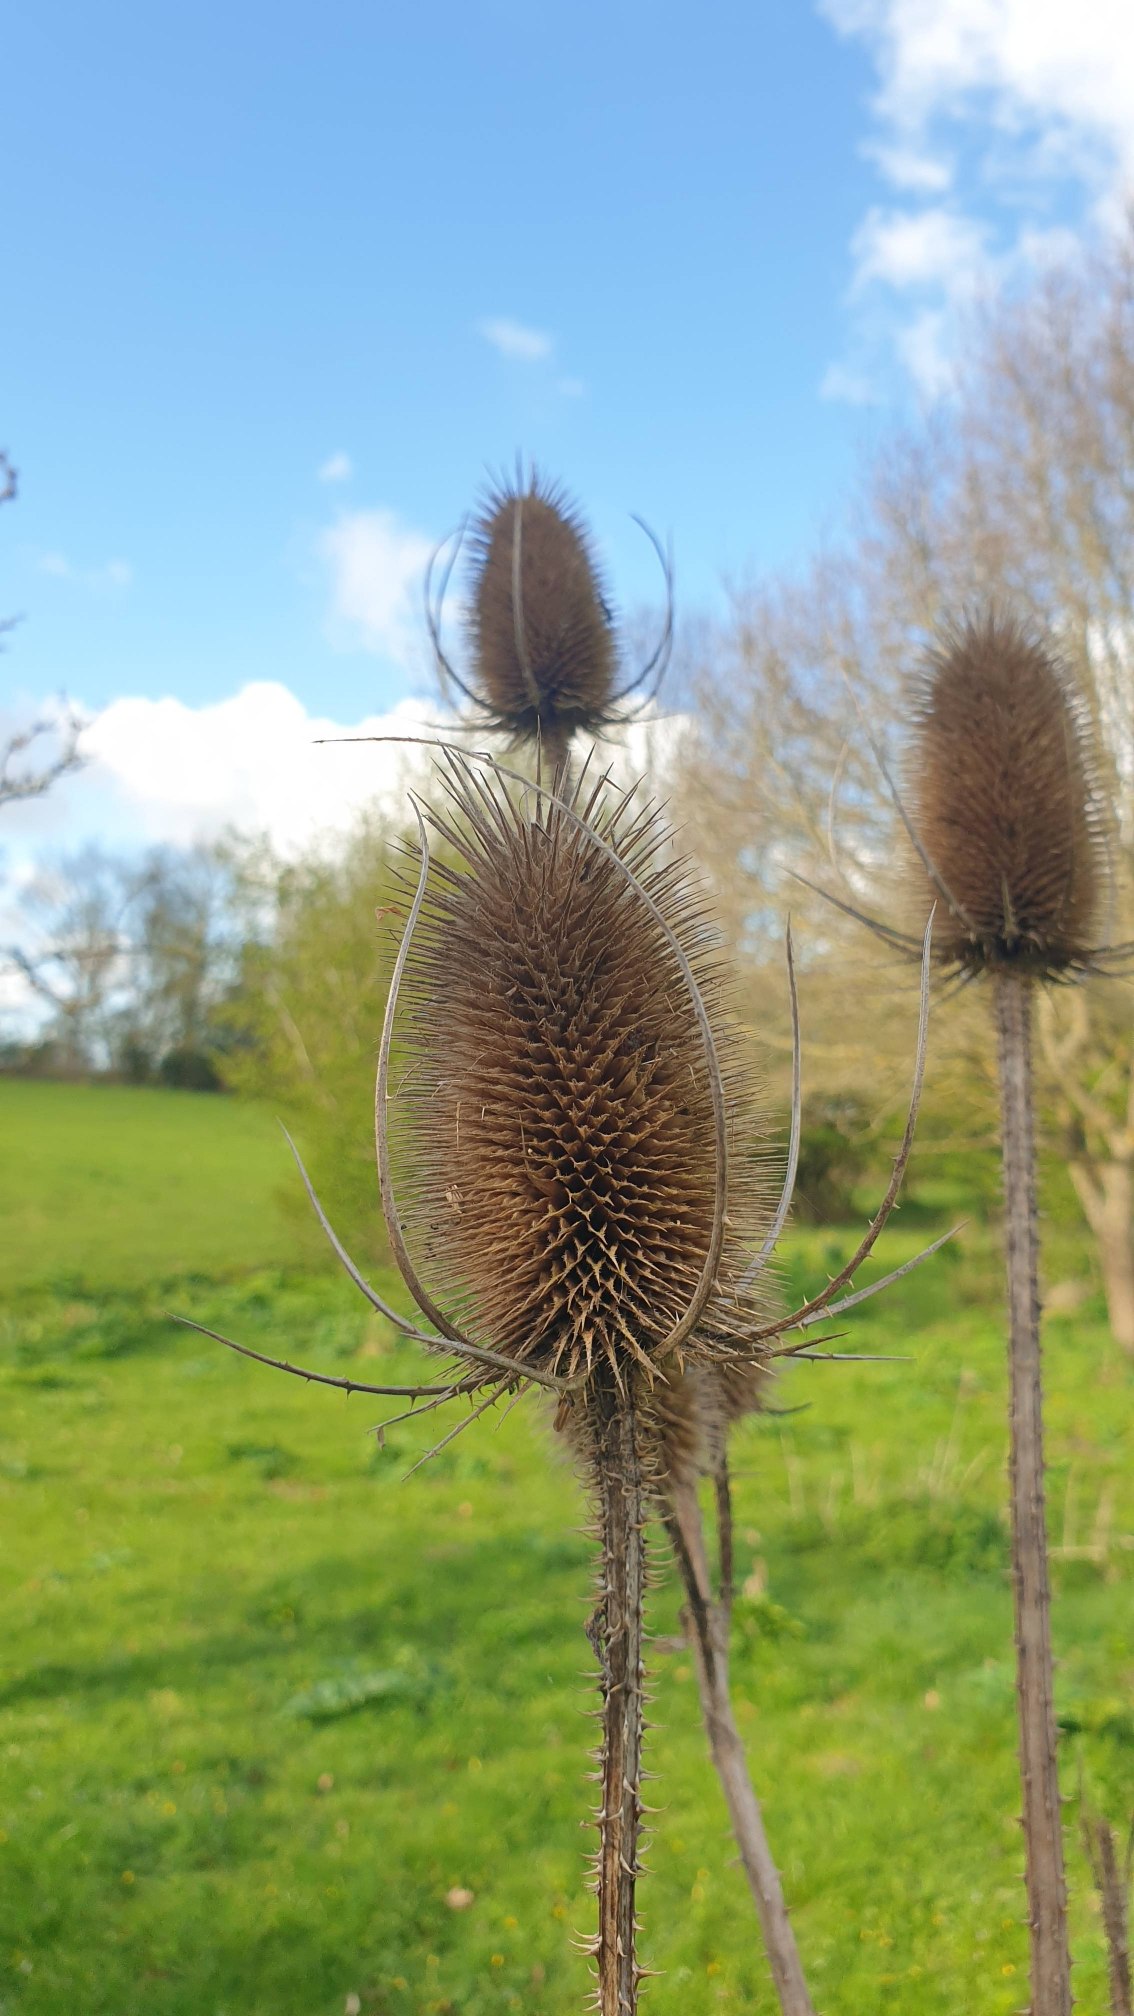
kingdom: Plantae
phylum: Tracheophyta
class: Magnoliopsida
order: Dipsacales
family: Caprifoliaceae
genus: Dipsacus
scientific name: Dipsacus fullonum
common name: Gærde-kartebolle
